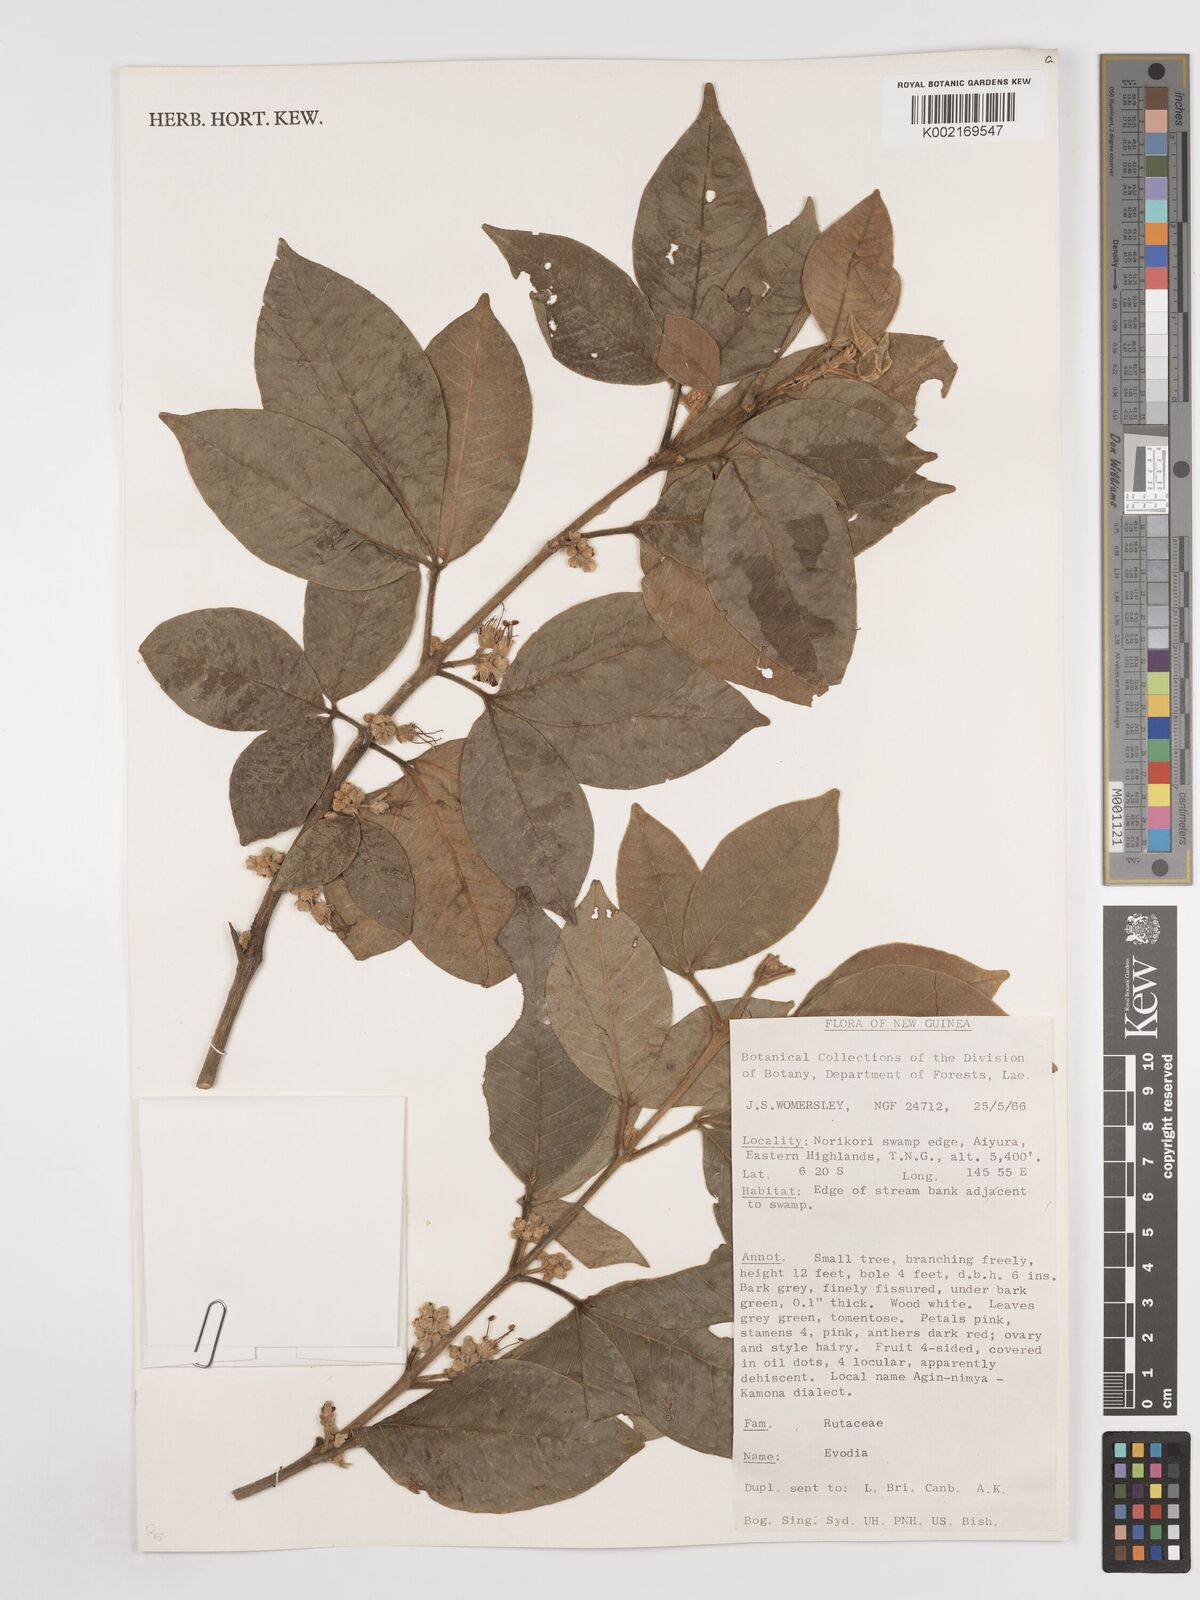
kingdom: Plantae
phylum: Tracheophyta
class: Magnoliopsida
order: Sapindales
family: Rutaceae
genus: Euodia
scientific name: Euodia
